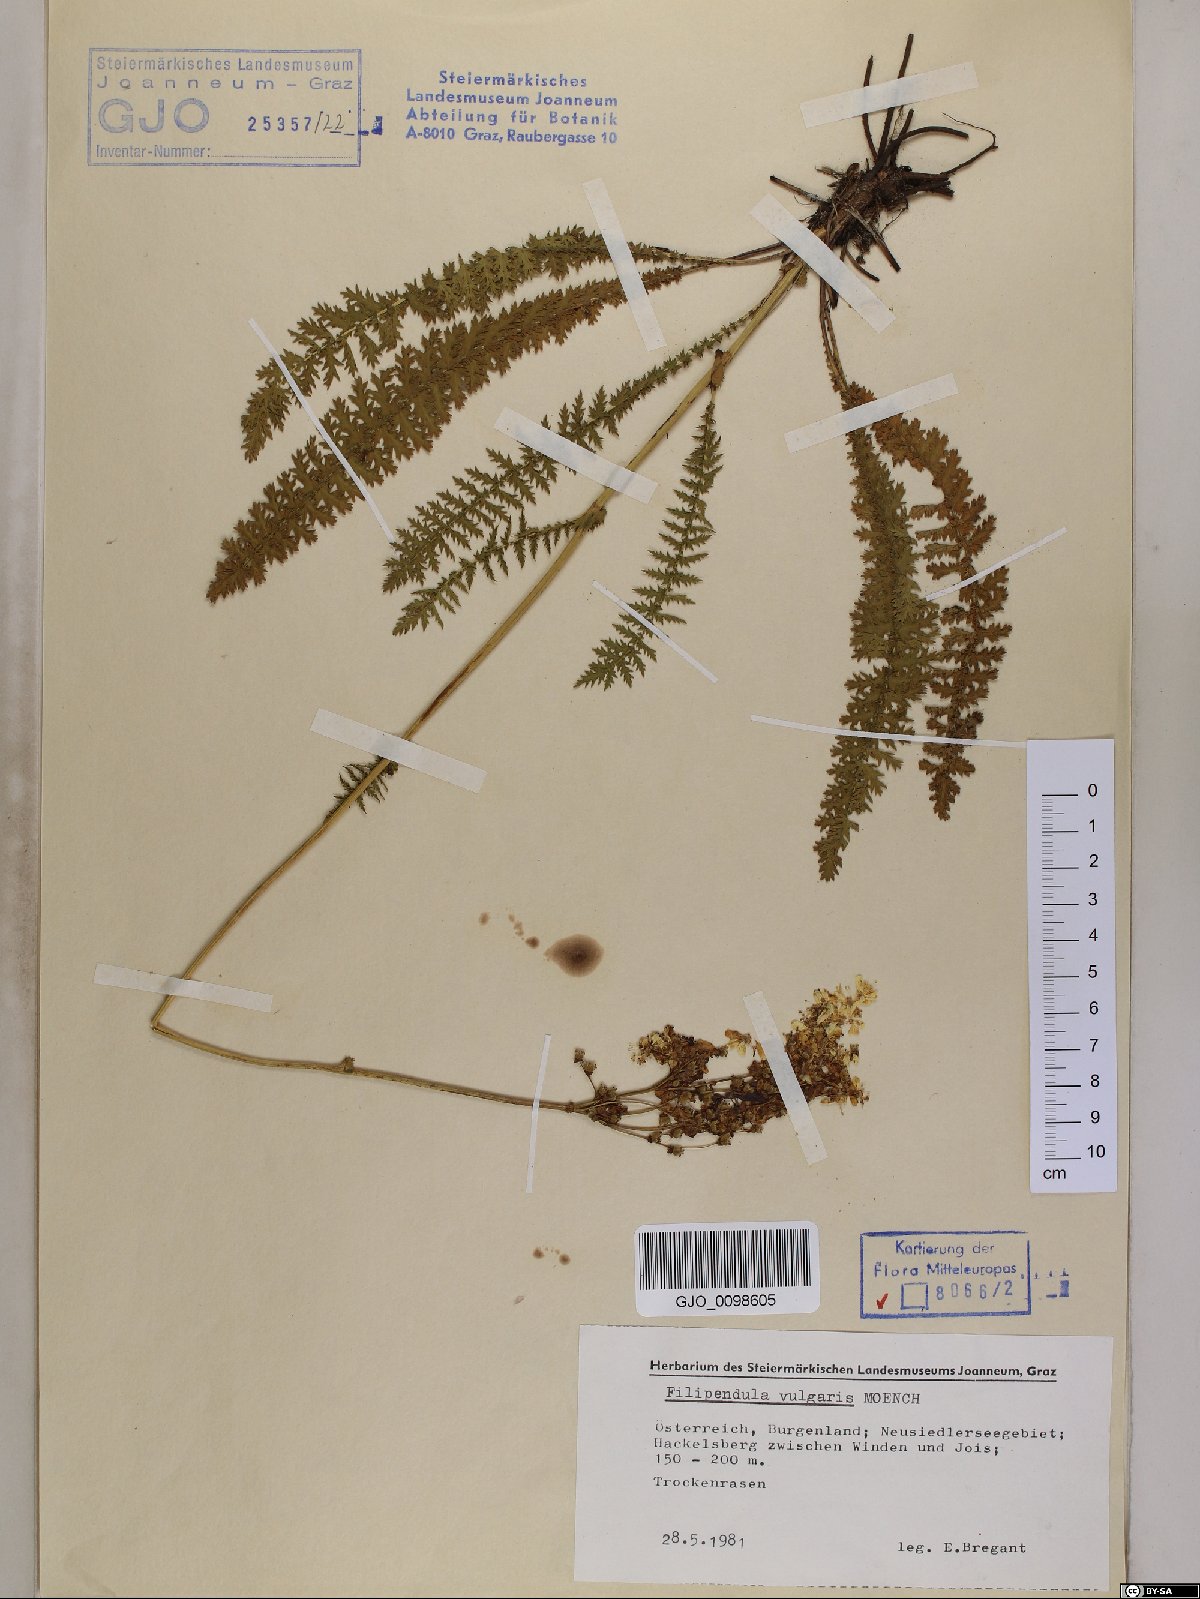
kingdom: Plantae
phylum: Tracheophyta
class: Magnoliopsida
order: Rosales
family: Rosaceae
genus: Filipendula
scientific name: Filipendula vulgaris
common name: Dropwort
